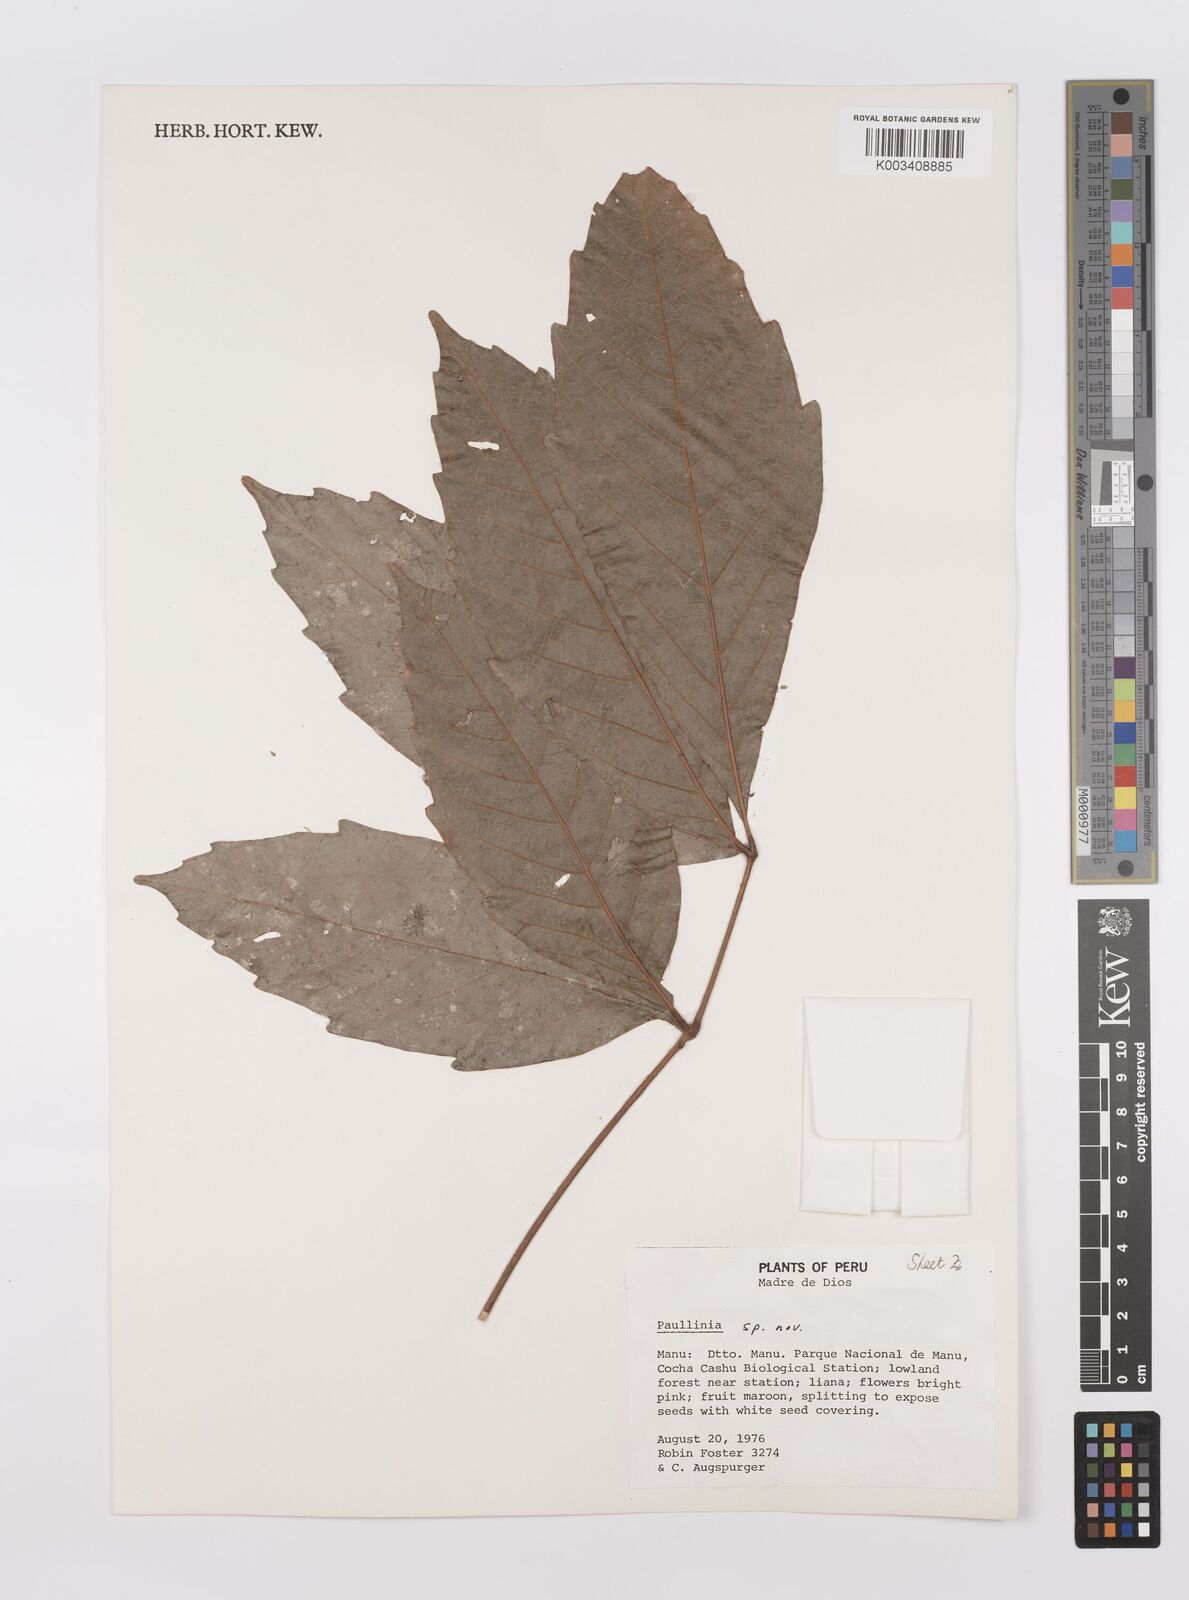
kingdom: Plantae
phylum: Tracheophyta
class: Magnoliopsida
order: Sapindales
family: Sapindaceae
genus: Paullinia
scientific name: Paullinia
